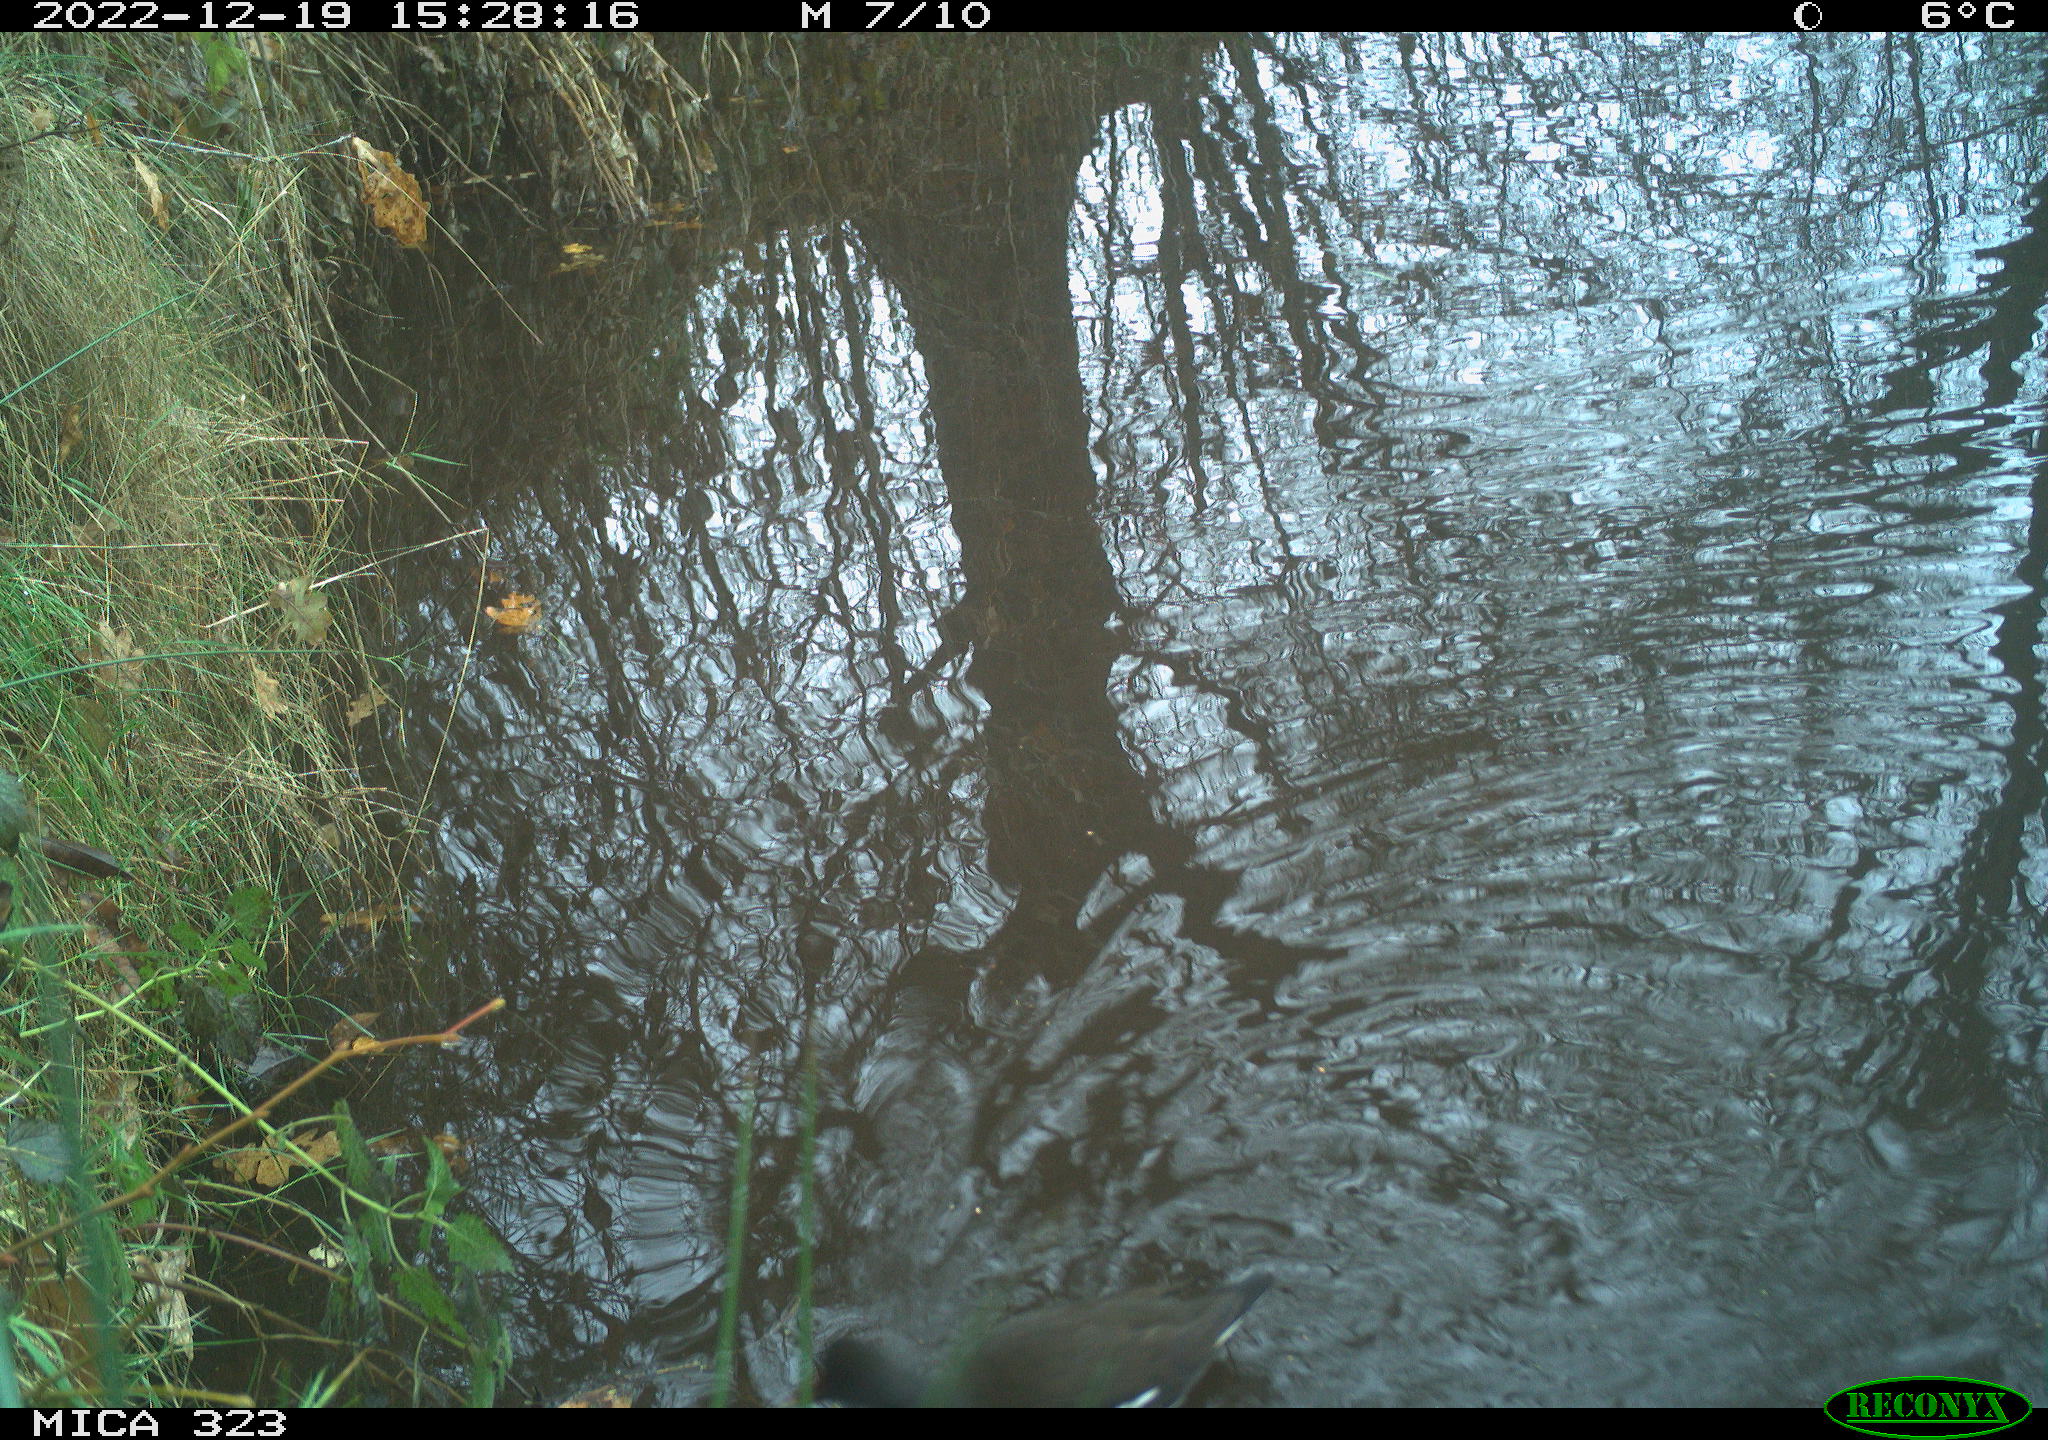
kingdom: Animalia
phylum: Chordata
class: Aves
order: Gruiformes
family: Rallidae
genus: Gallinula
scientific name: Gallinula chloropus
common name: Common moorhen
